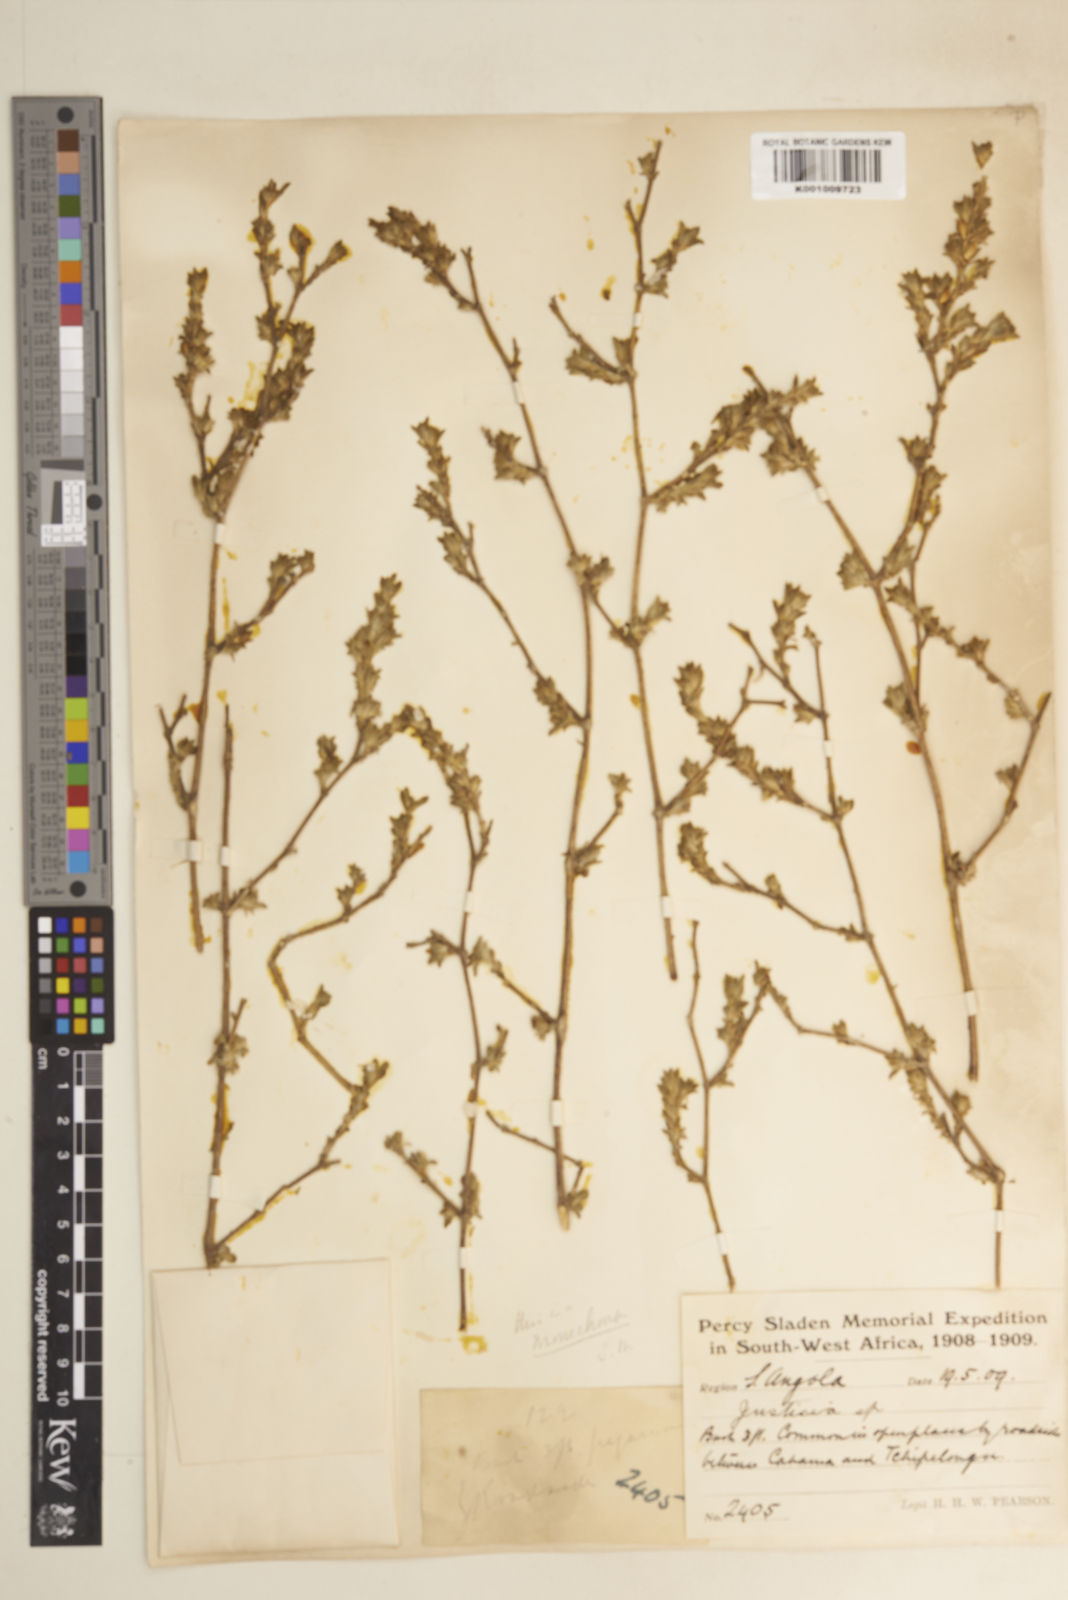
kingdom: Plantae
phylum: Tracheophyta
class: Magnoliopsida
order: Lamiales
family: Acanthaceae
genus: Pogonospermum
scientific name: Pogonospermum
